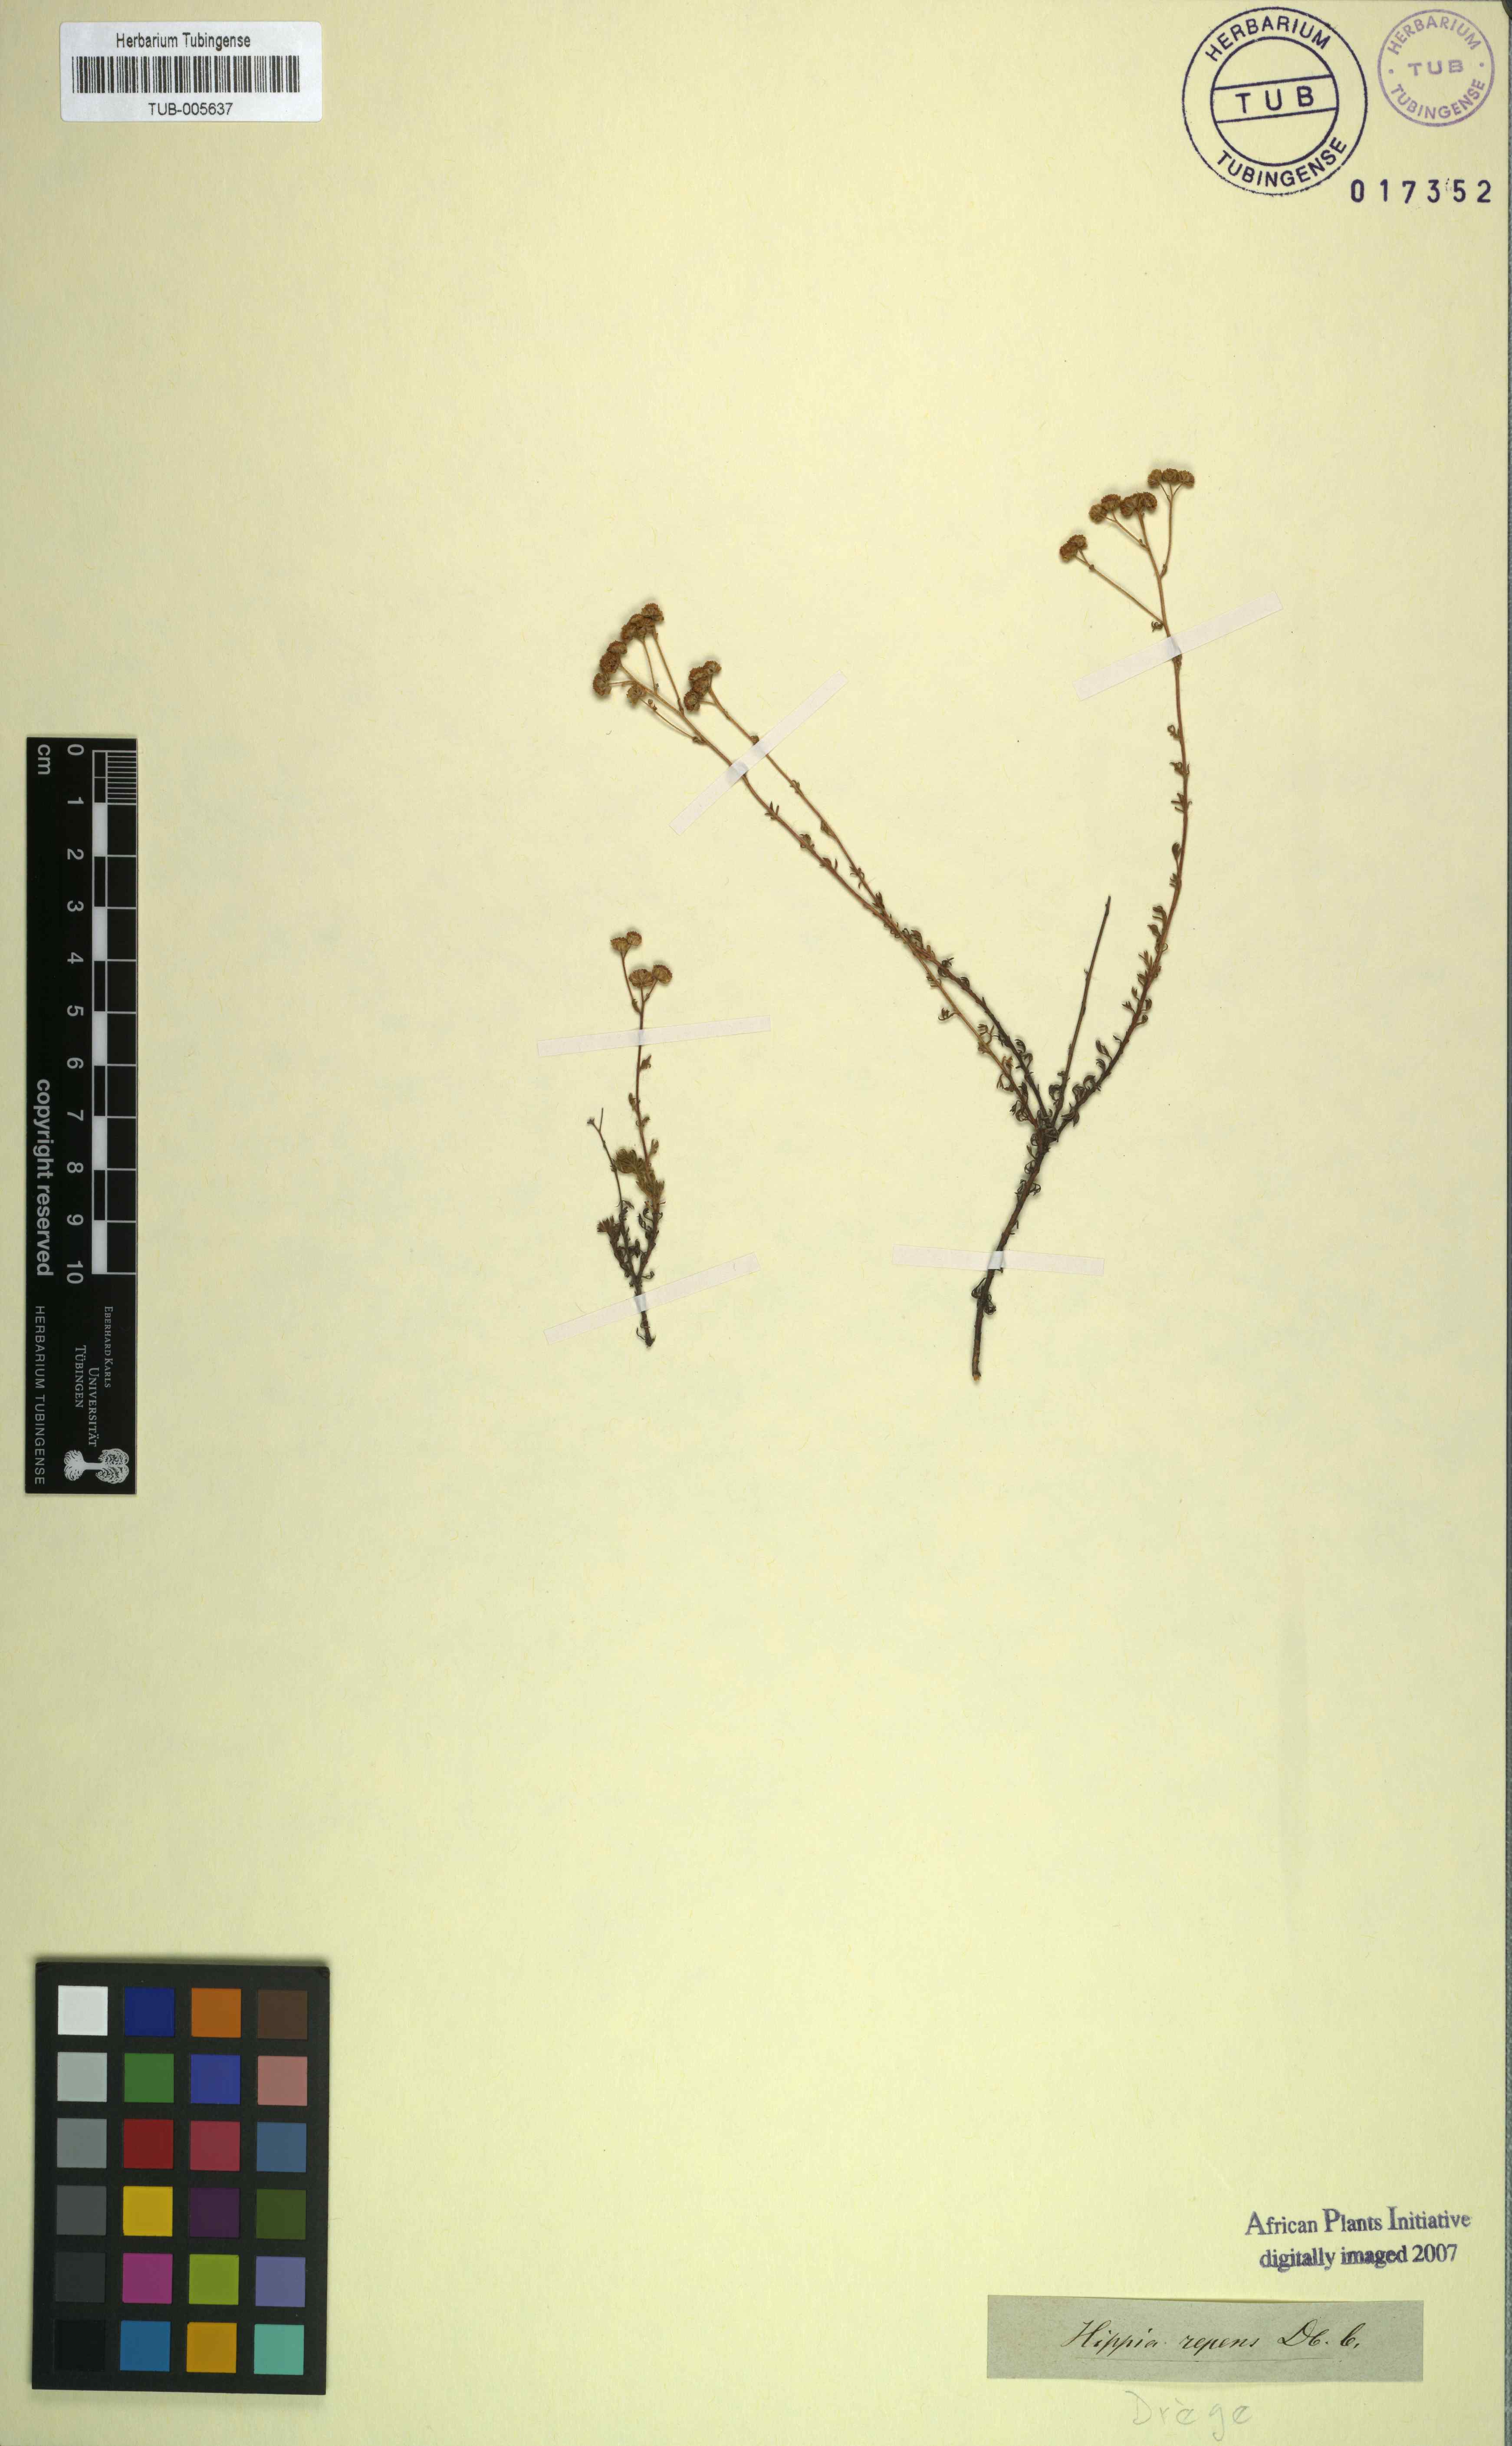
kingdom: Plantae
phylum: Tracheophyta
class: Magnoliopsida
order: Asterales
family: Asteraceae
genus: Hippia
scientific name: Hippia pilosa
